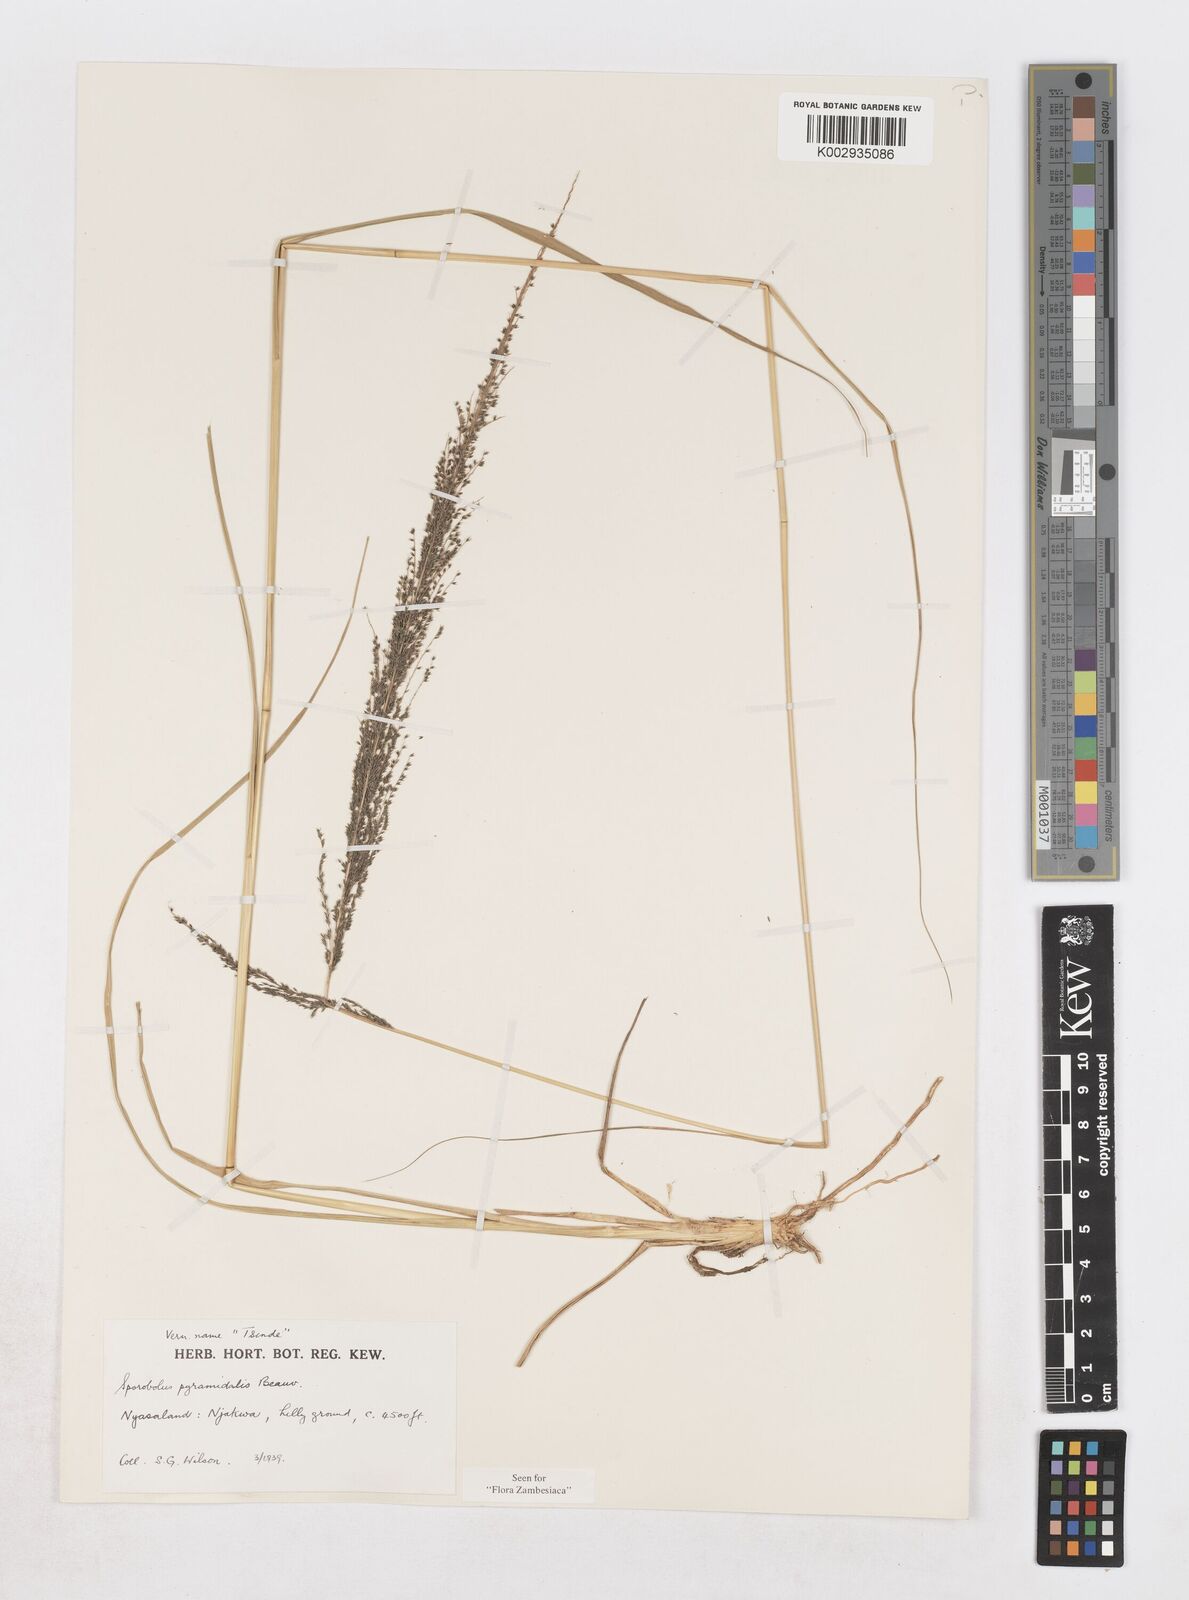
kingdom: Plantae
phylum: Tracheophyta
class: Liliopsida
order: Poales
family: Poaceae
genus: Sporobolus
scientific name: Sporobolus pyramidalis
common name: West indian dropseed
